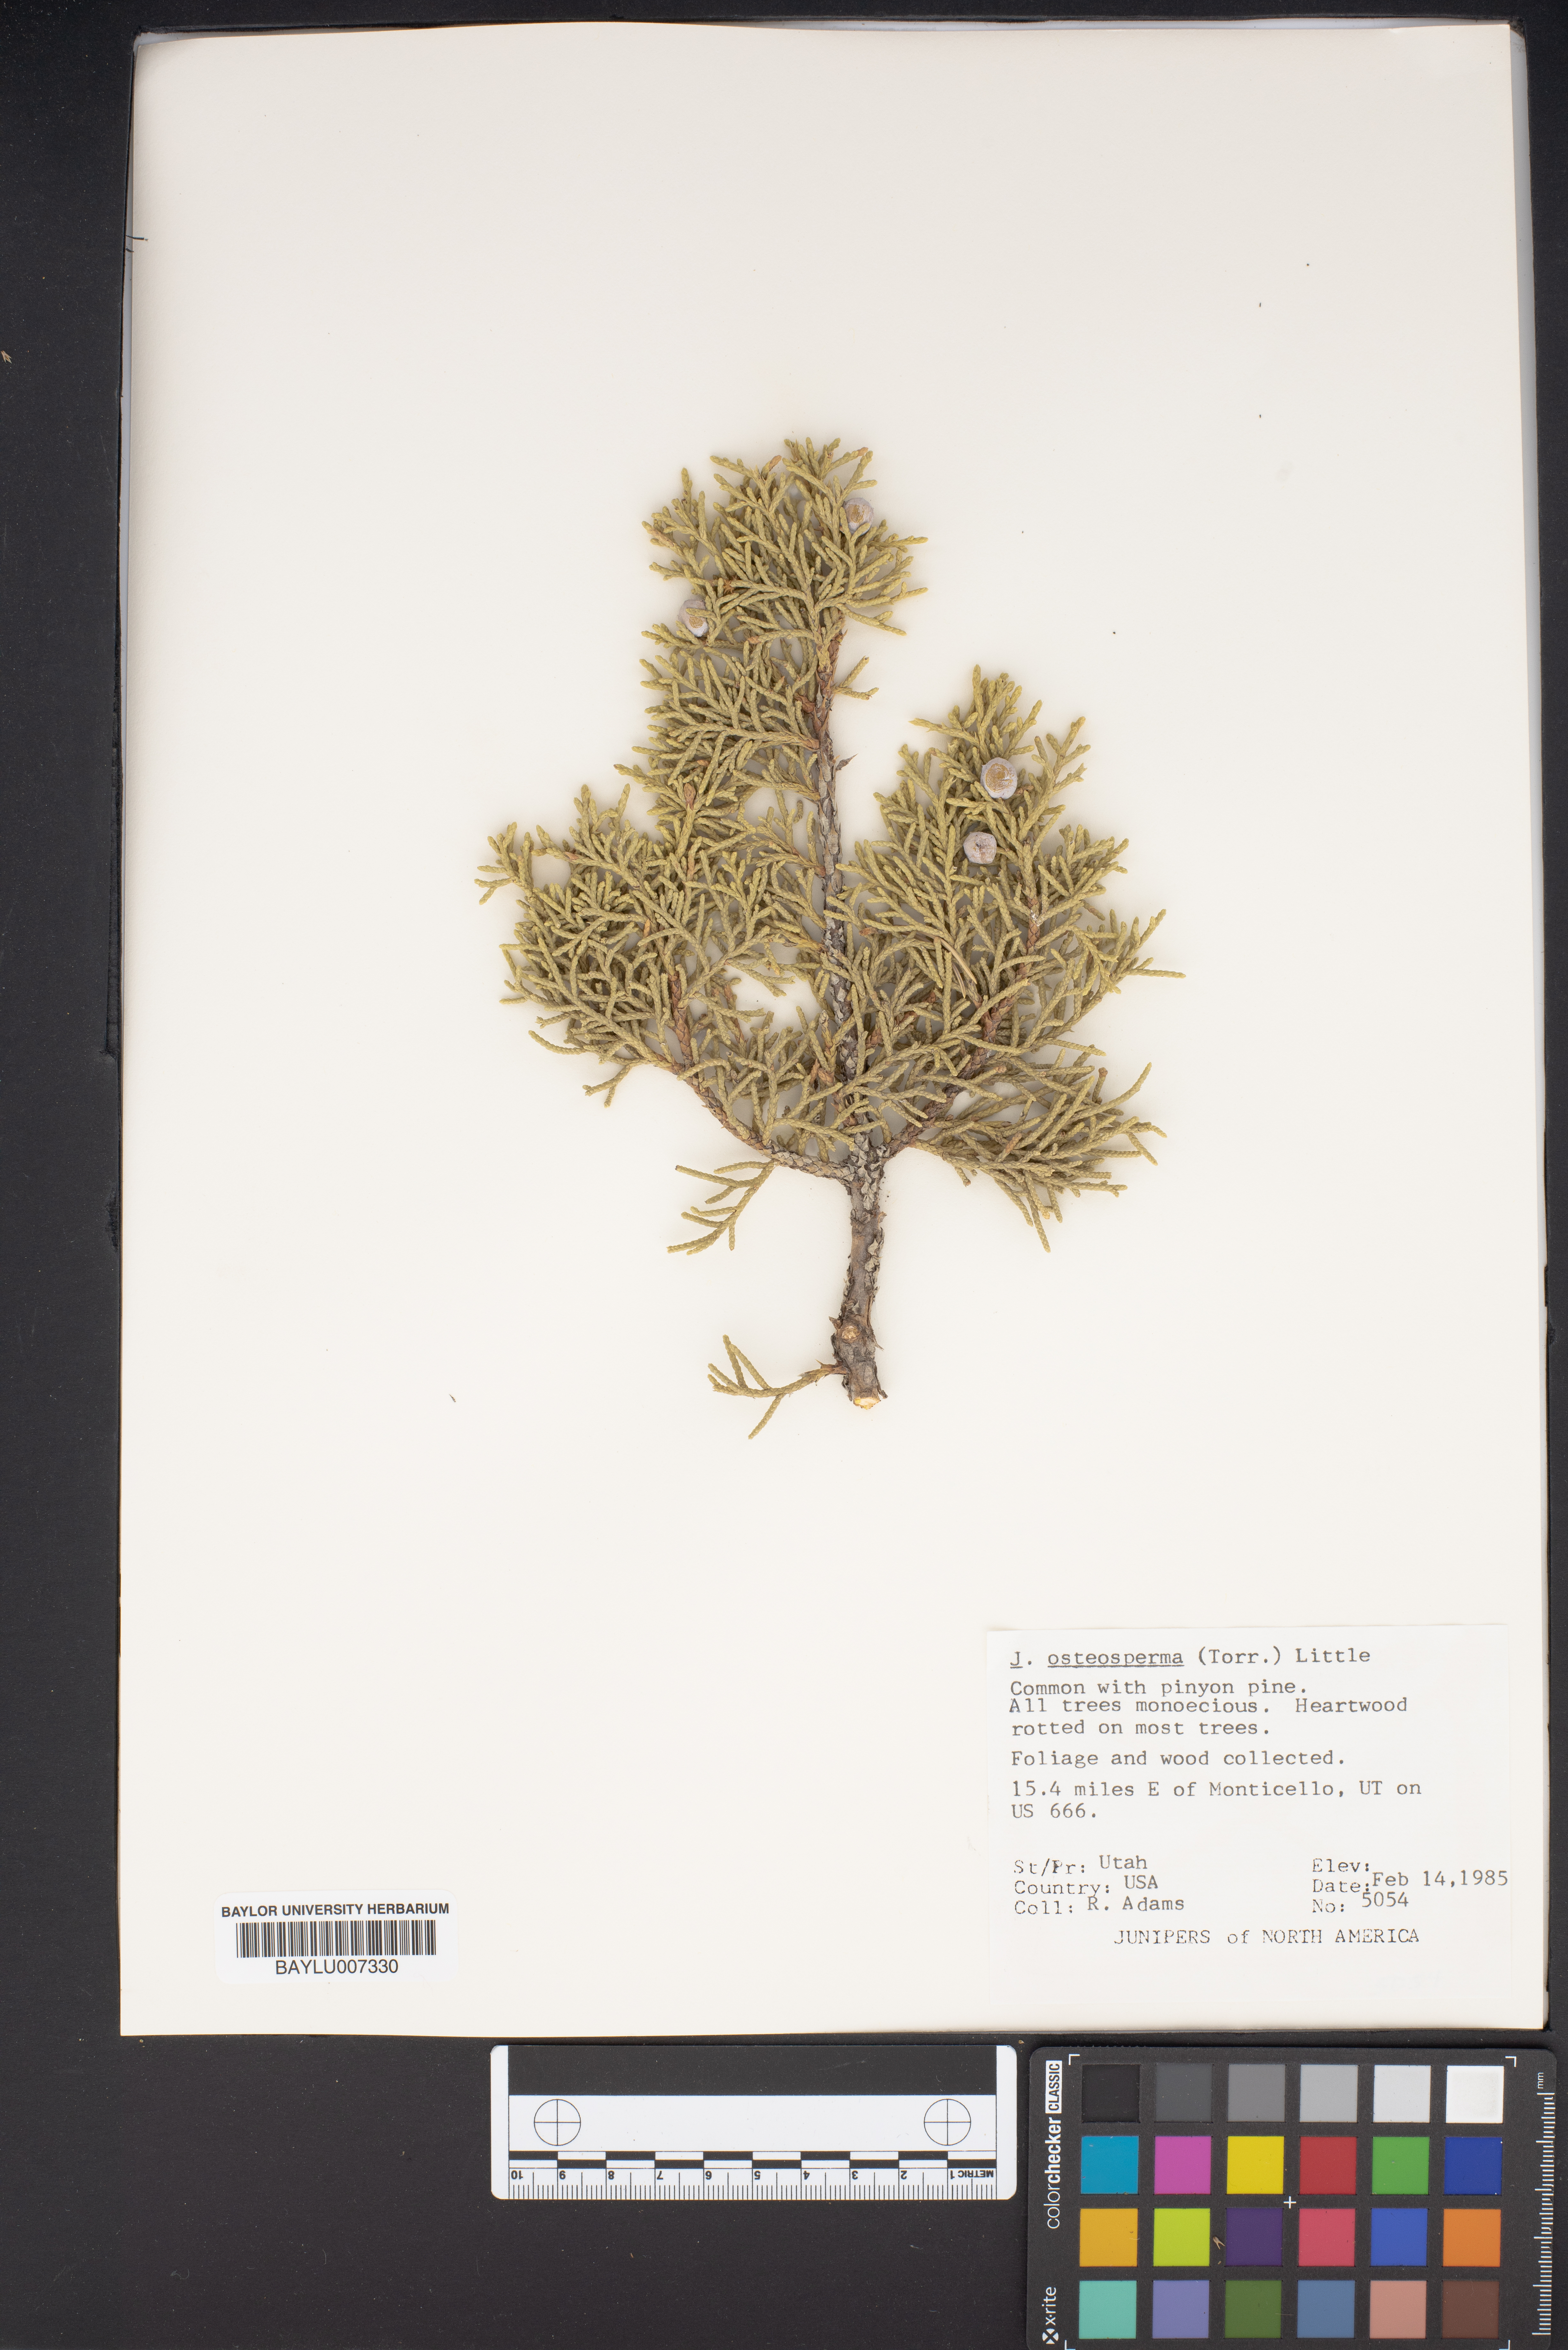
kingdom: Plantae
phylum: Tracheophyta
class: Pinopsida
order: Pinales
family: Cupressaceae
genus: Juniperus
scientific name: Juniperus osteosperma
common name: Utah juniper
